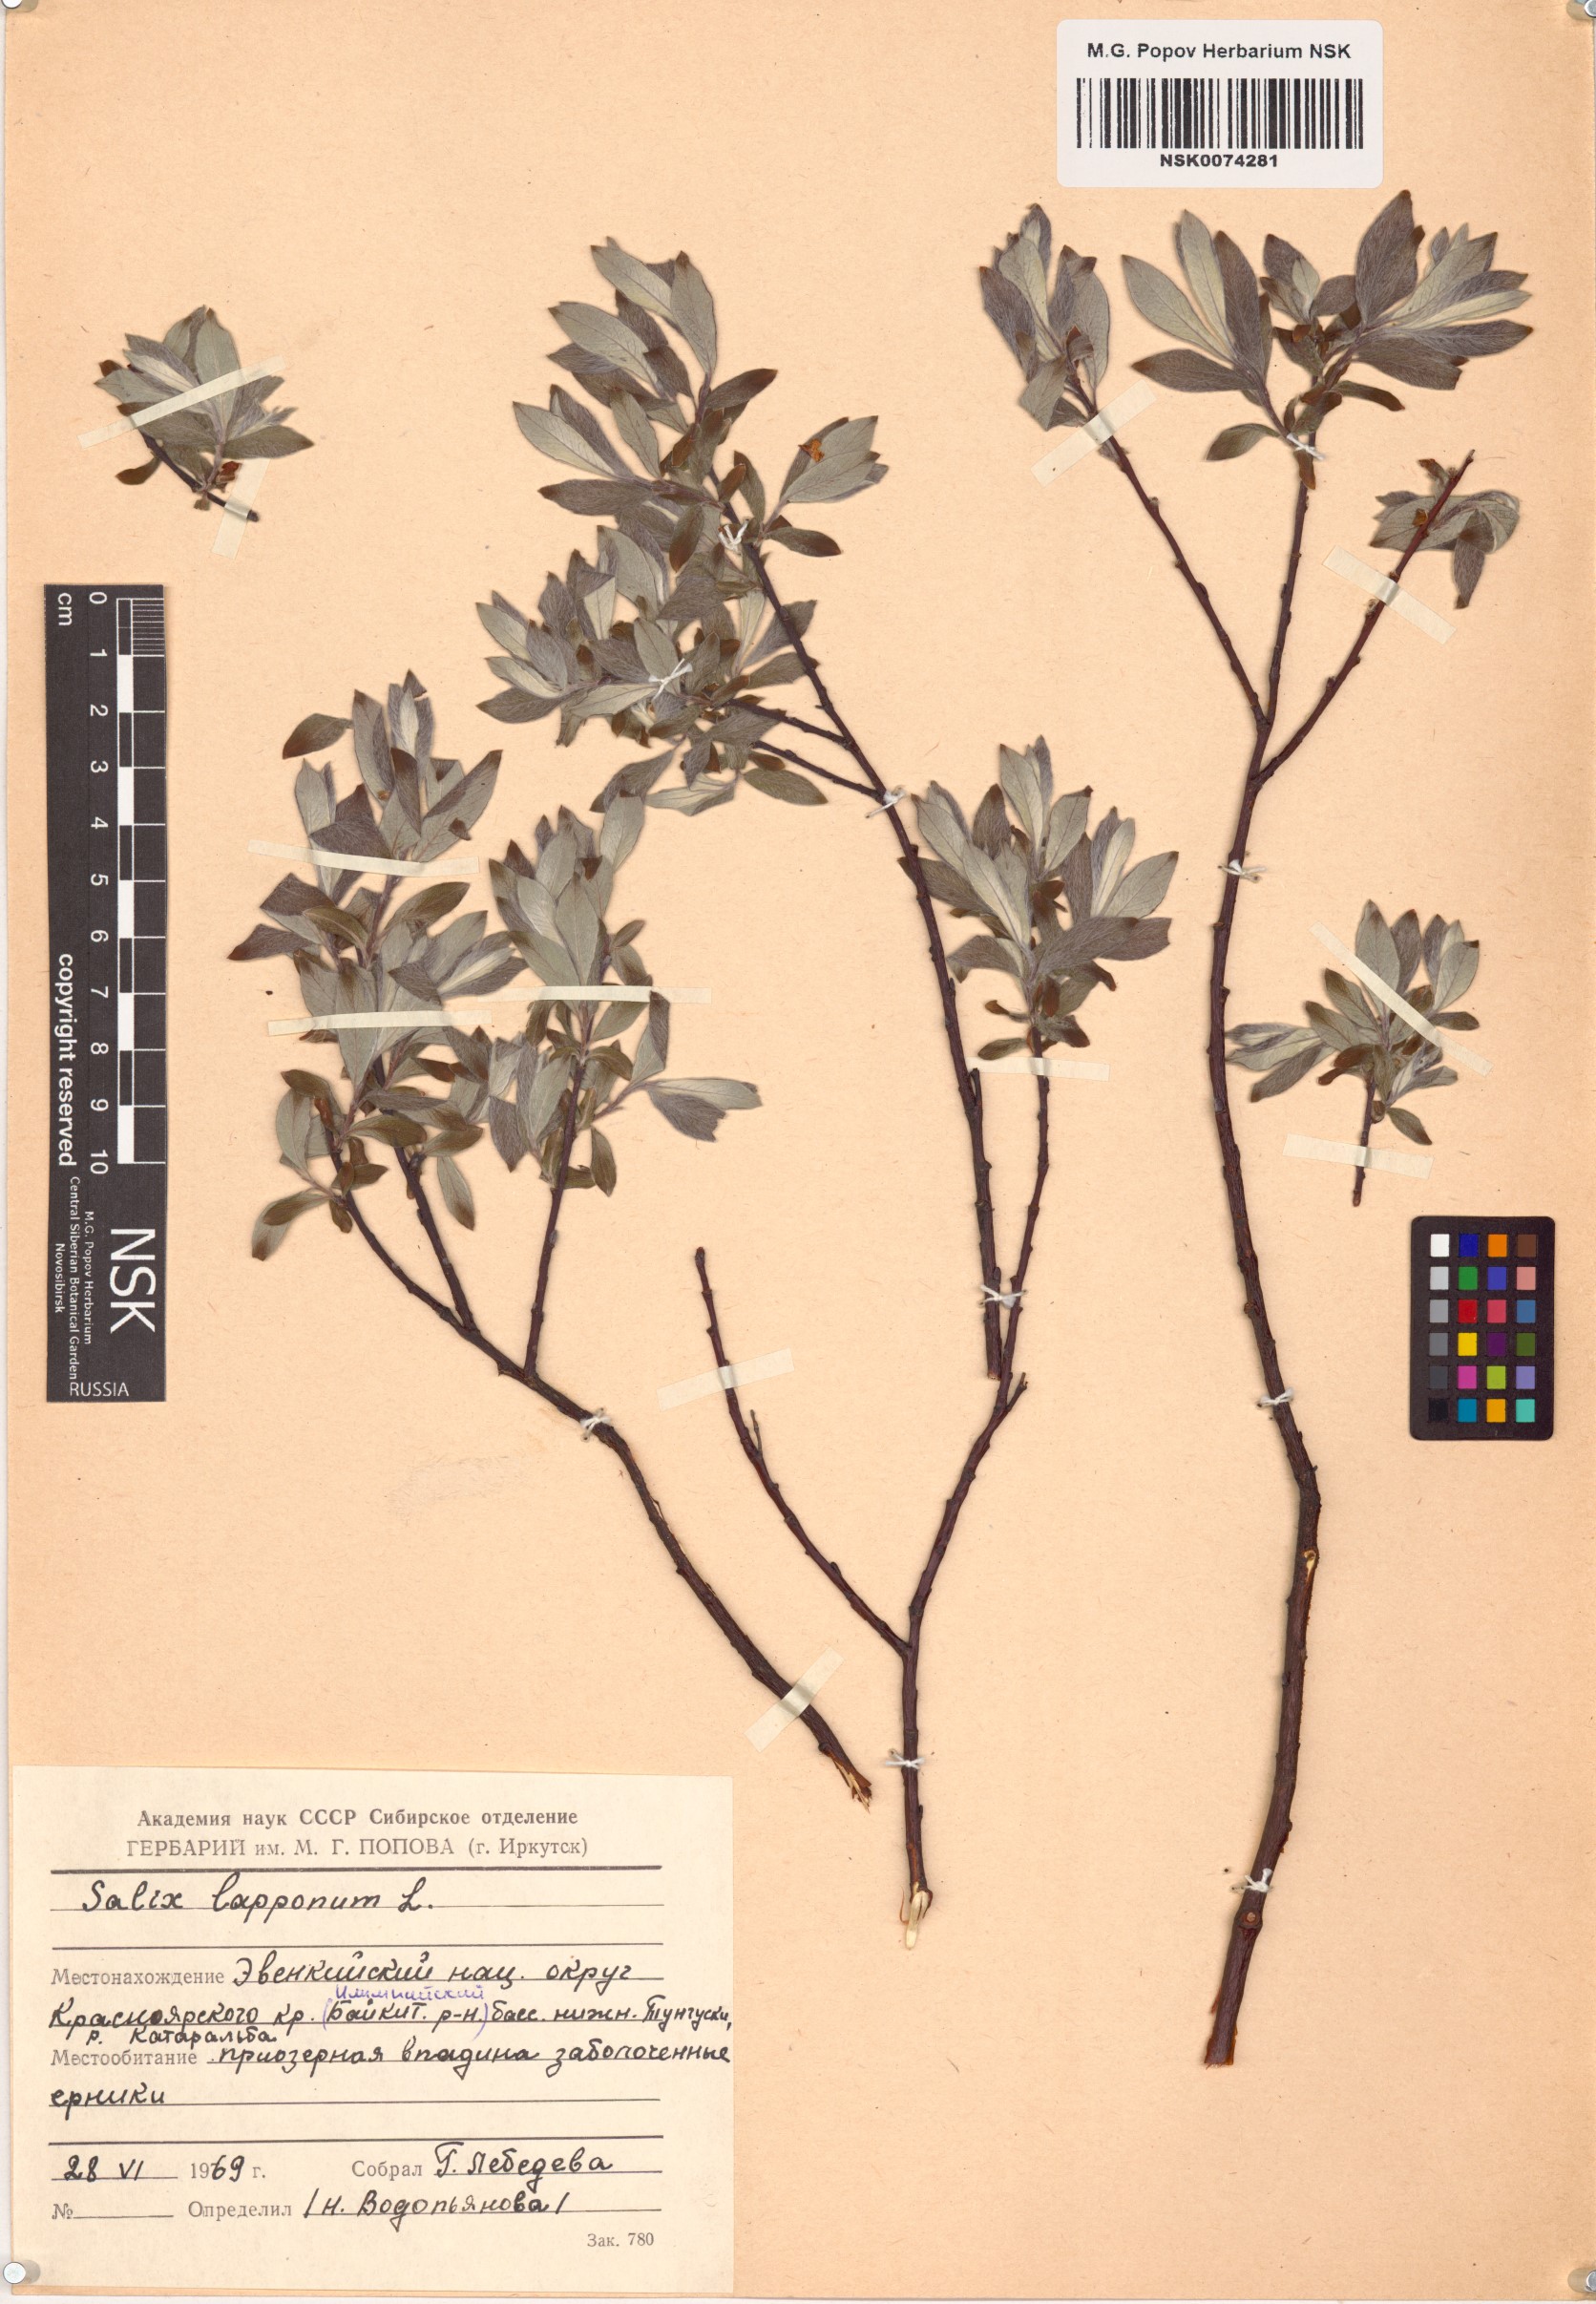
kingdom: Plantae
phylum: Tracheophyta
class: Magnoliopsida
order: Malpighiales
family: Salicaceae
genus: Salix
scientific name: Salix lapponum
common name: Downy willow
